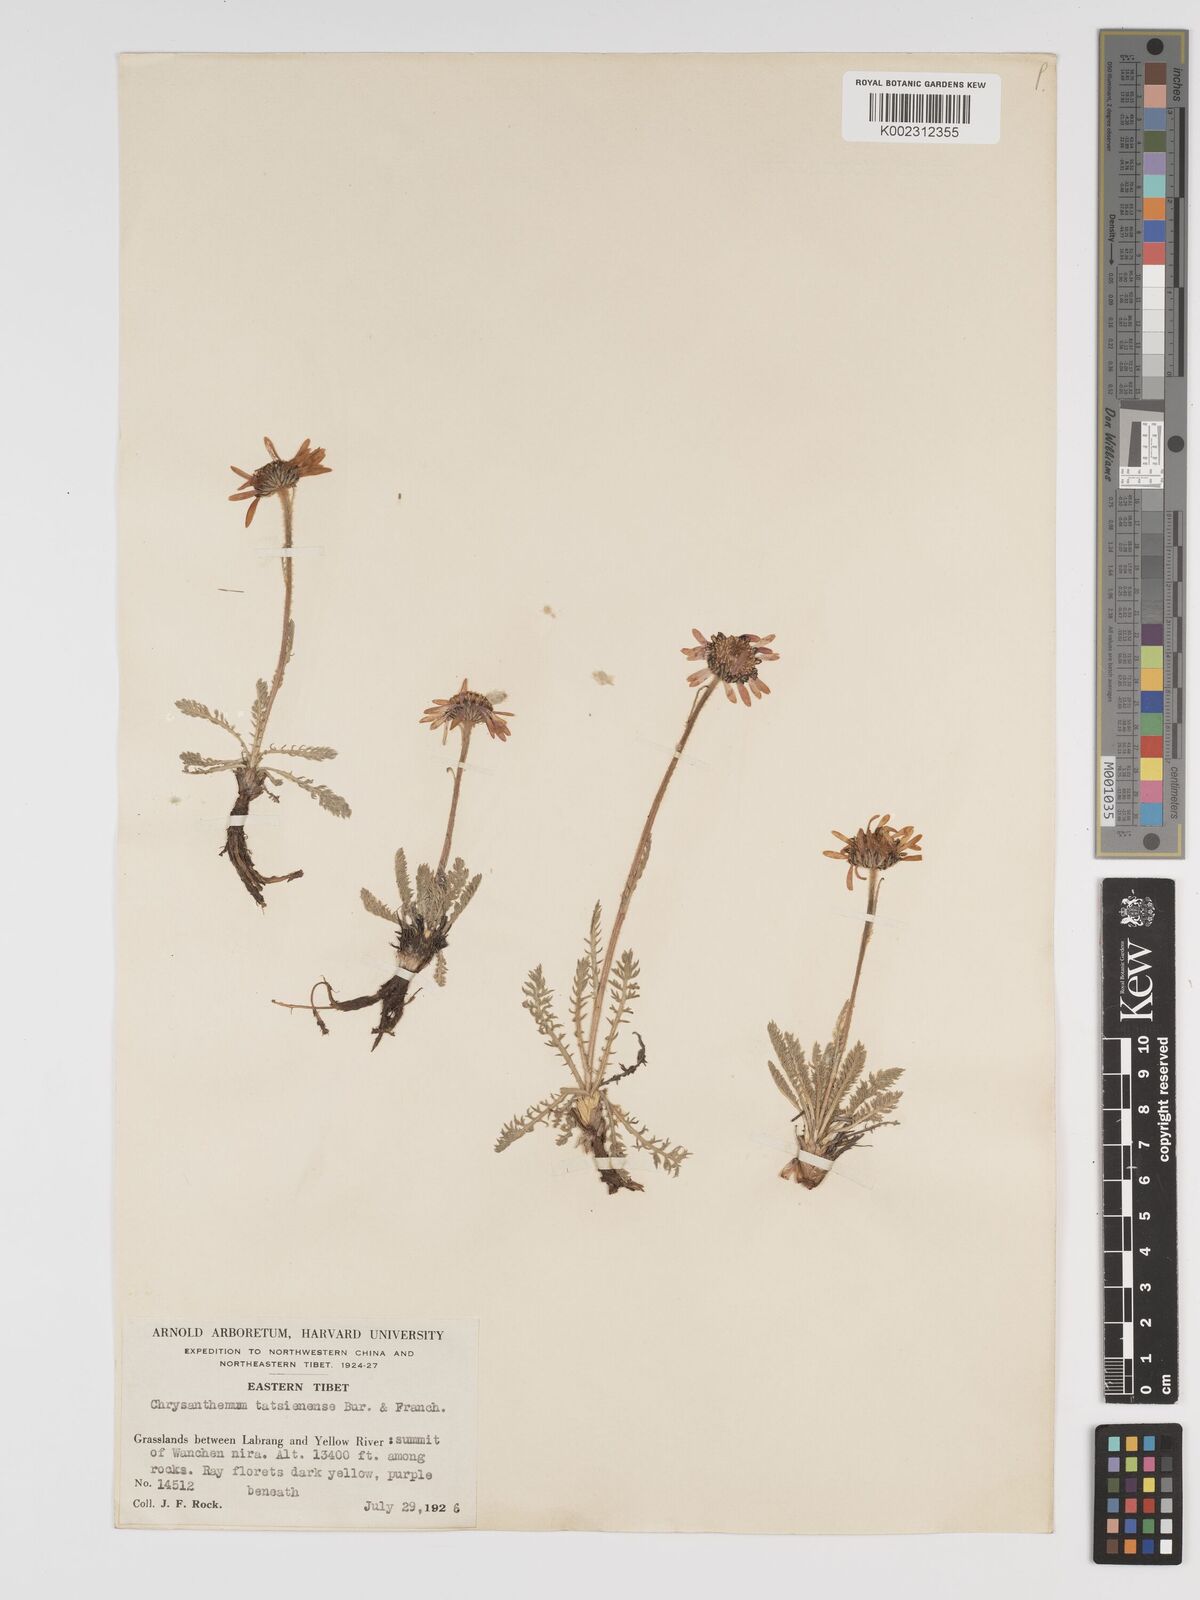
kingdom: Plantae
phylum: Tracheophyta
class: Magnoliopsida
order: Asterales
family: Asteraceae
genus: Tanacetum
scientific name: Tanacetum tatsienense
